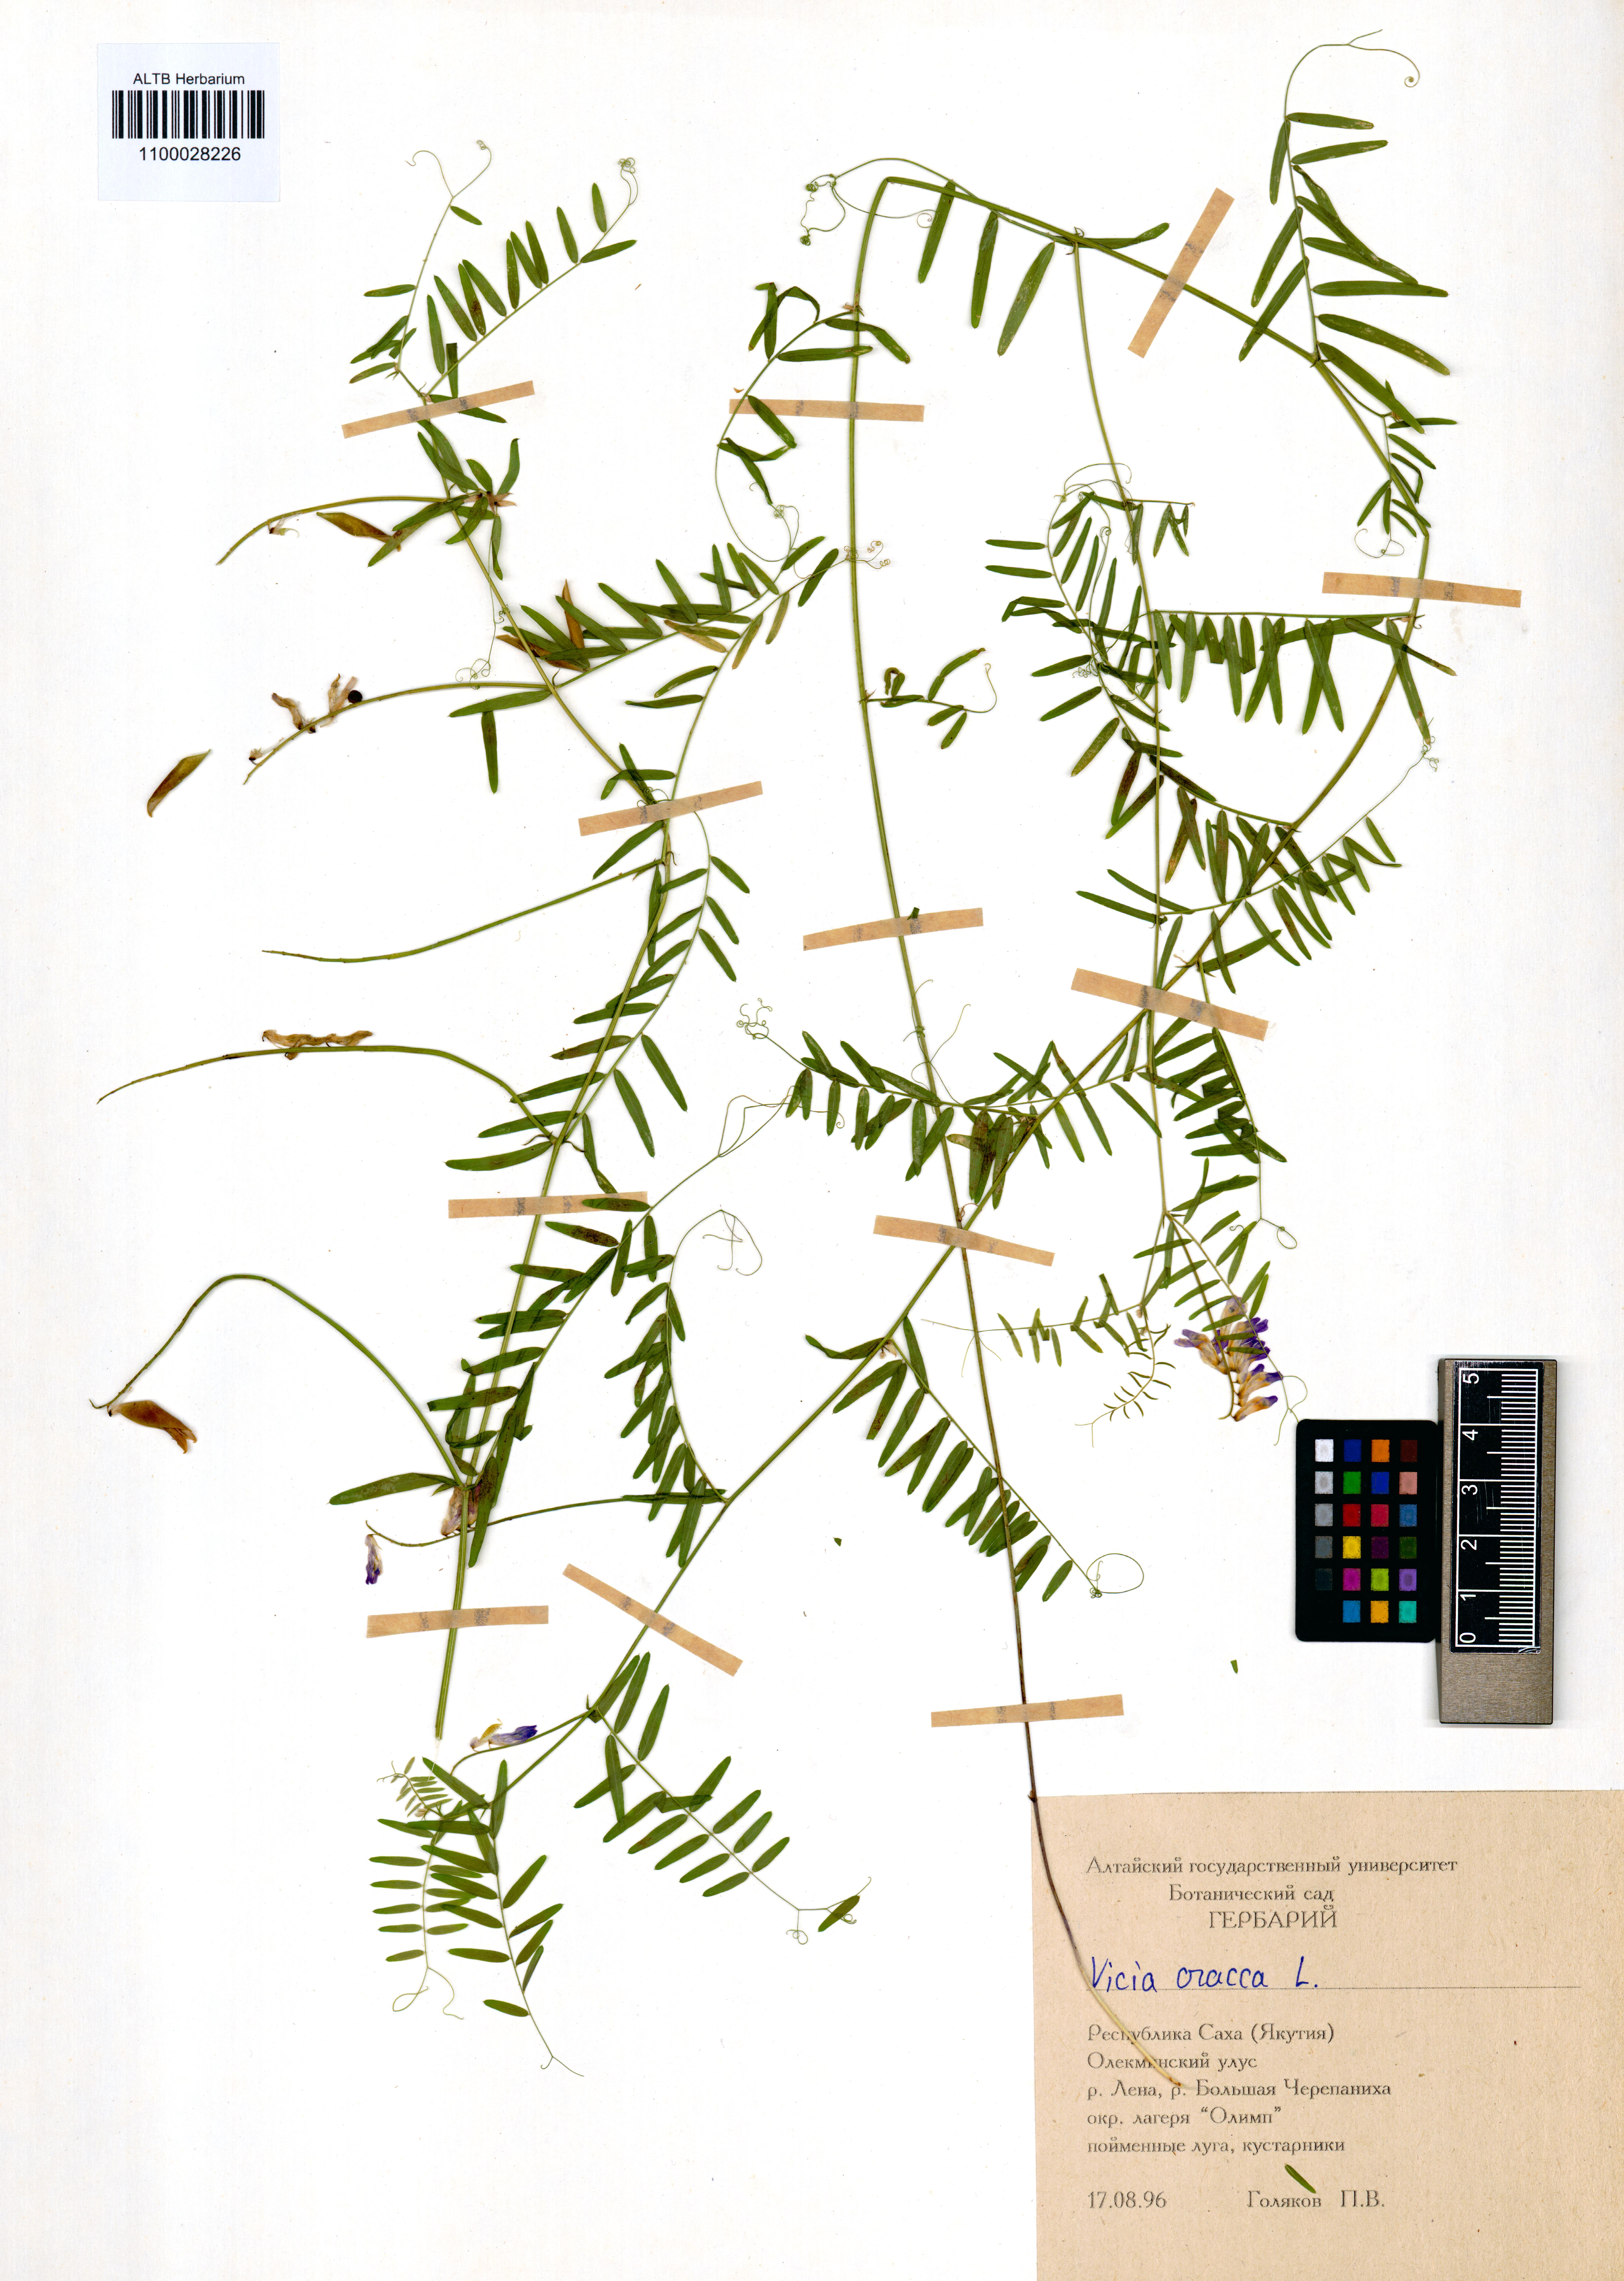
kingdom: Plantae
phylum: Tracheophyta
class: Magnoliopsida
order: Fabales
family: Fabaceae
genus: Vicia
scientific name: Vicia cracca
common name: Bird vetch
